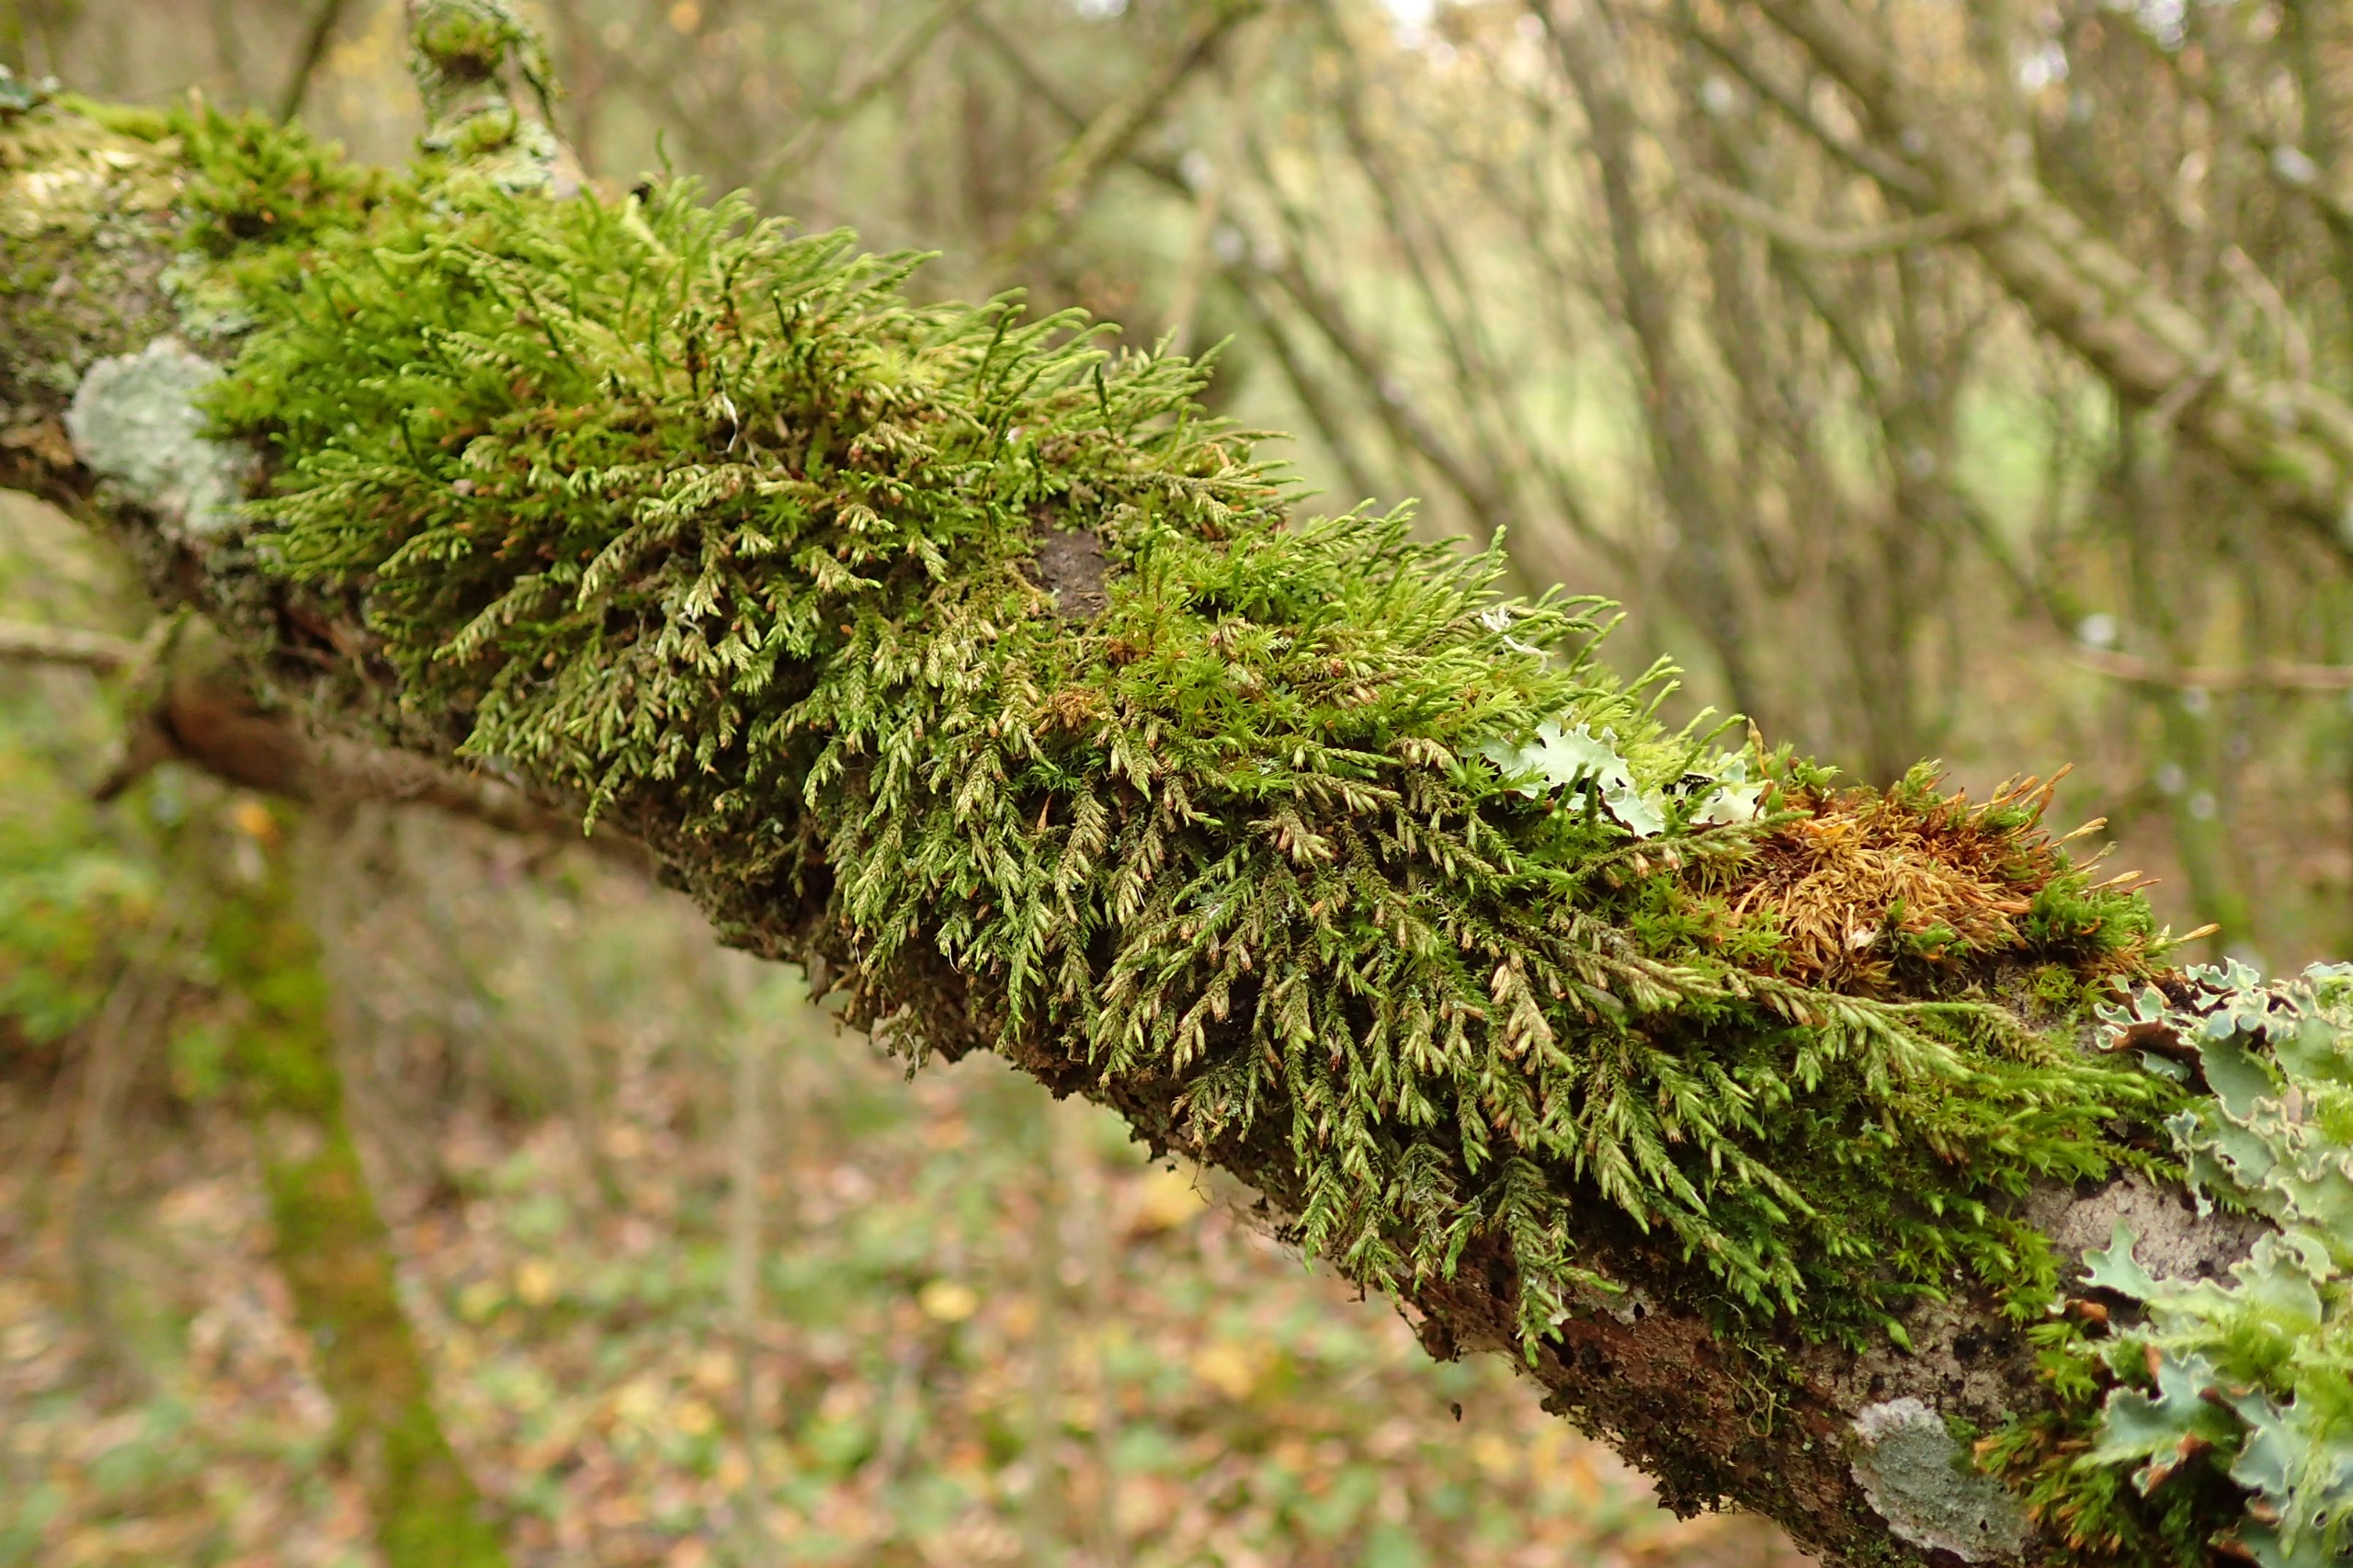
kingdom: Plantae
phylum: Bryophyta
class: Bryopsida
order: Hypnales
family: Cryphaeaceae
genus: Cryphaea
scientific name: Cryphaea heteromalla
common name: Bark-dækmos
